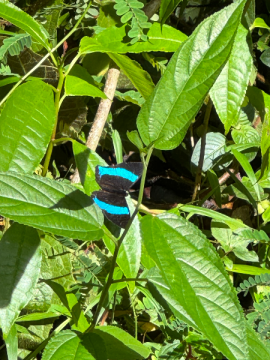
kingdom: Animalia
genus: Mesosemia
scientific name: Mesosemia grandis
